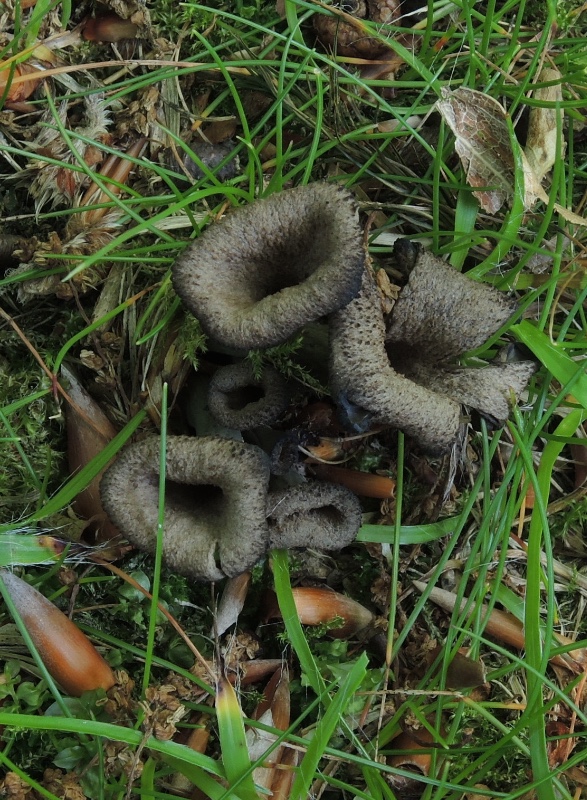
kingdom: Fungi
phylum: Basidiomycota
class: Agaricomycetes
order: Cantharellales
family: Hydnaceae
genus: Craterellus
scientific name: Craterellus cornucopioides
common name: trompetsvamp
